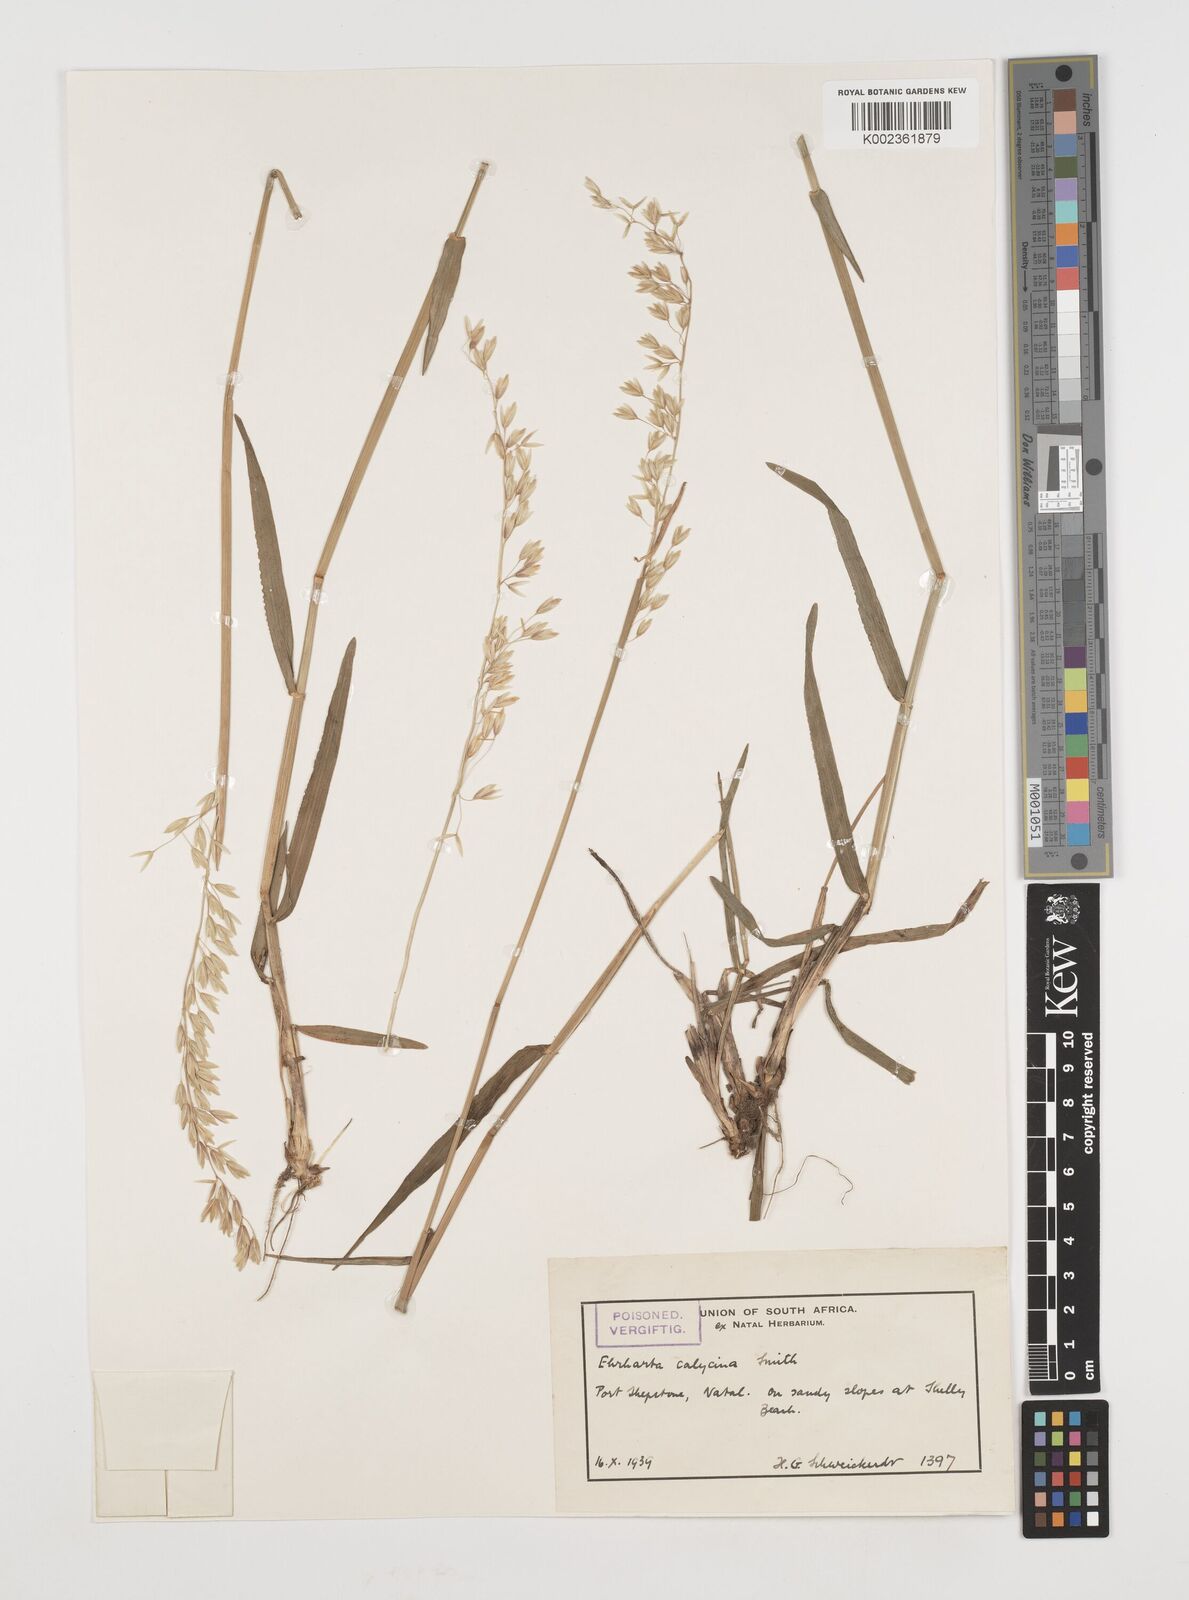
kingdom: Plantae
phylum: Tracheophyta
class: Liliopsida
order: Poales
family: Poaceae
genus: Ehrharta
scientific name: Ehrharta
